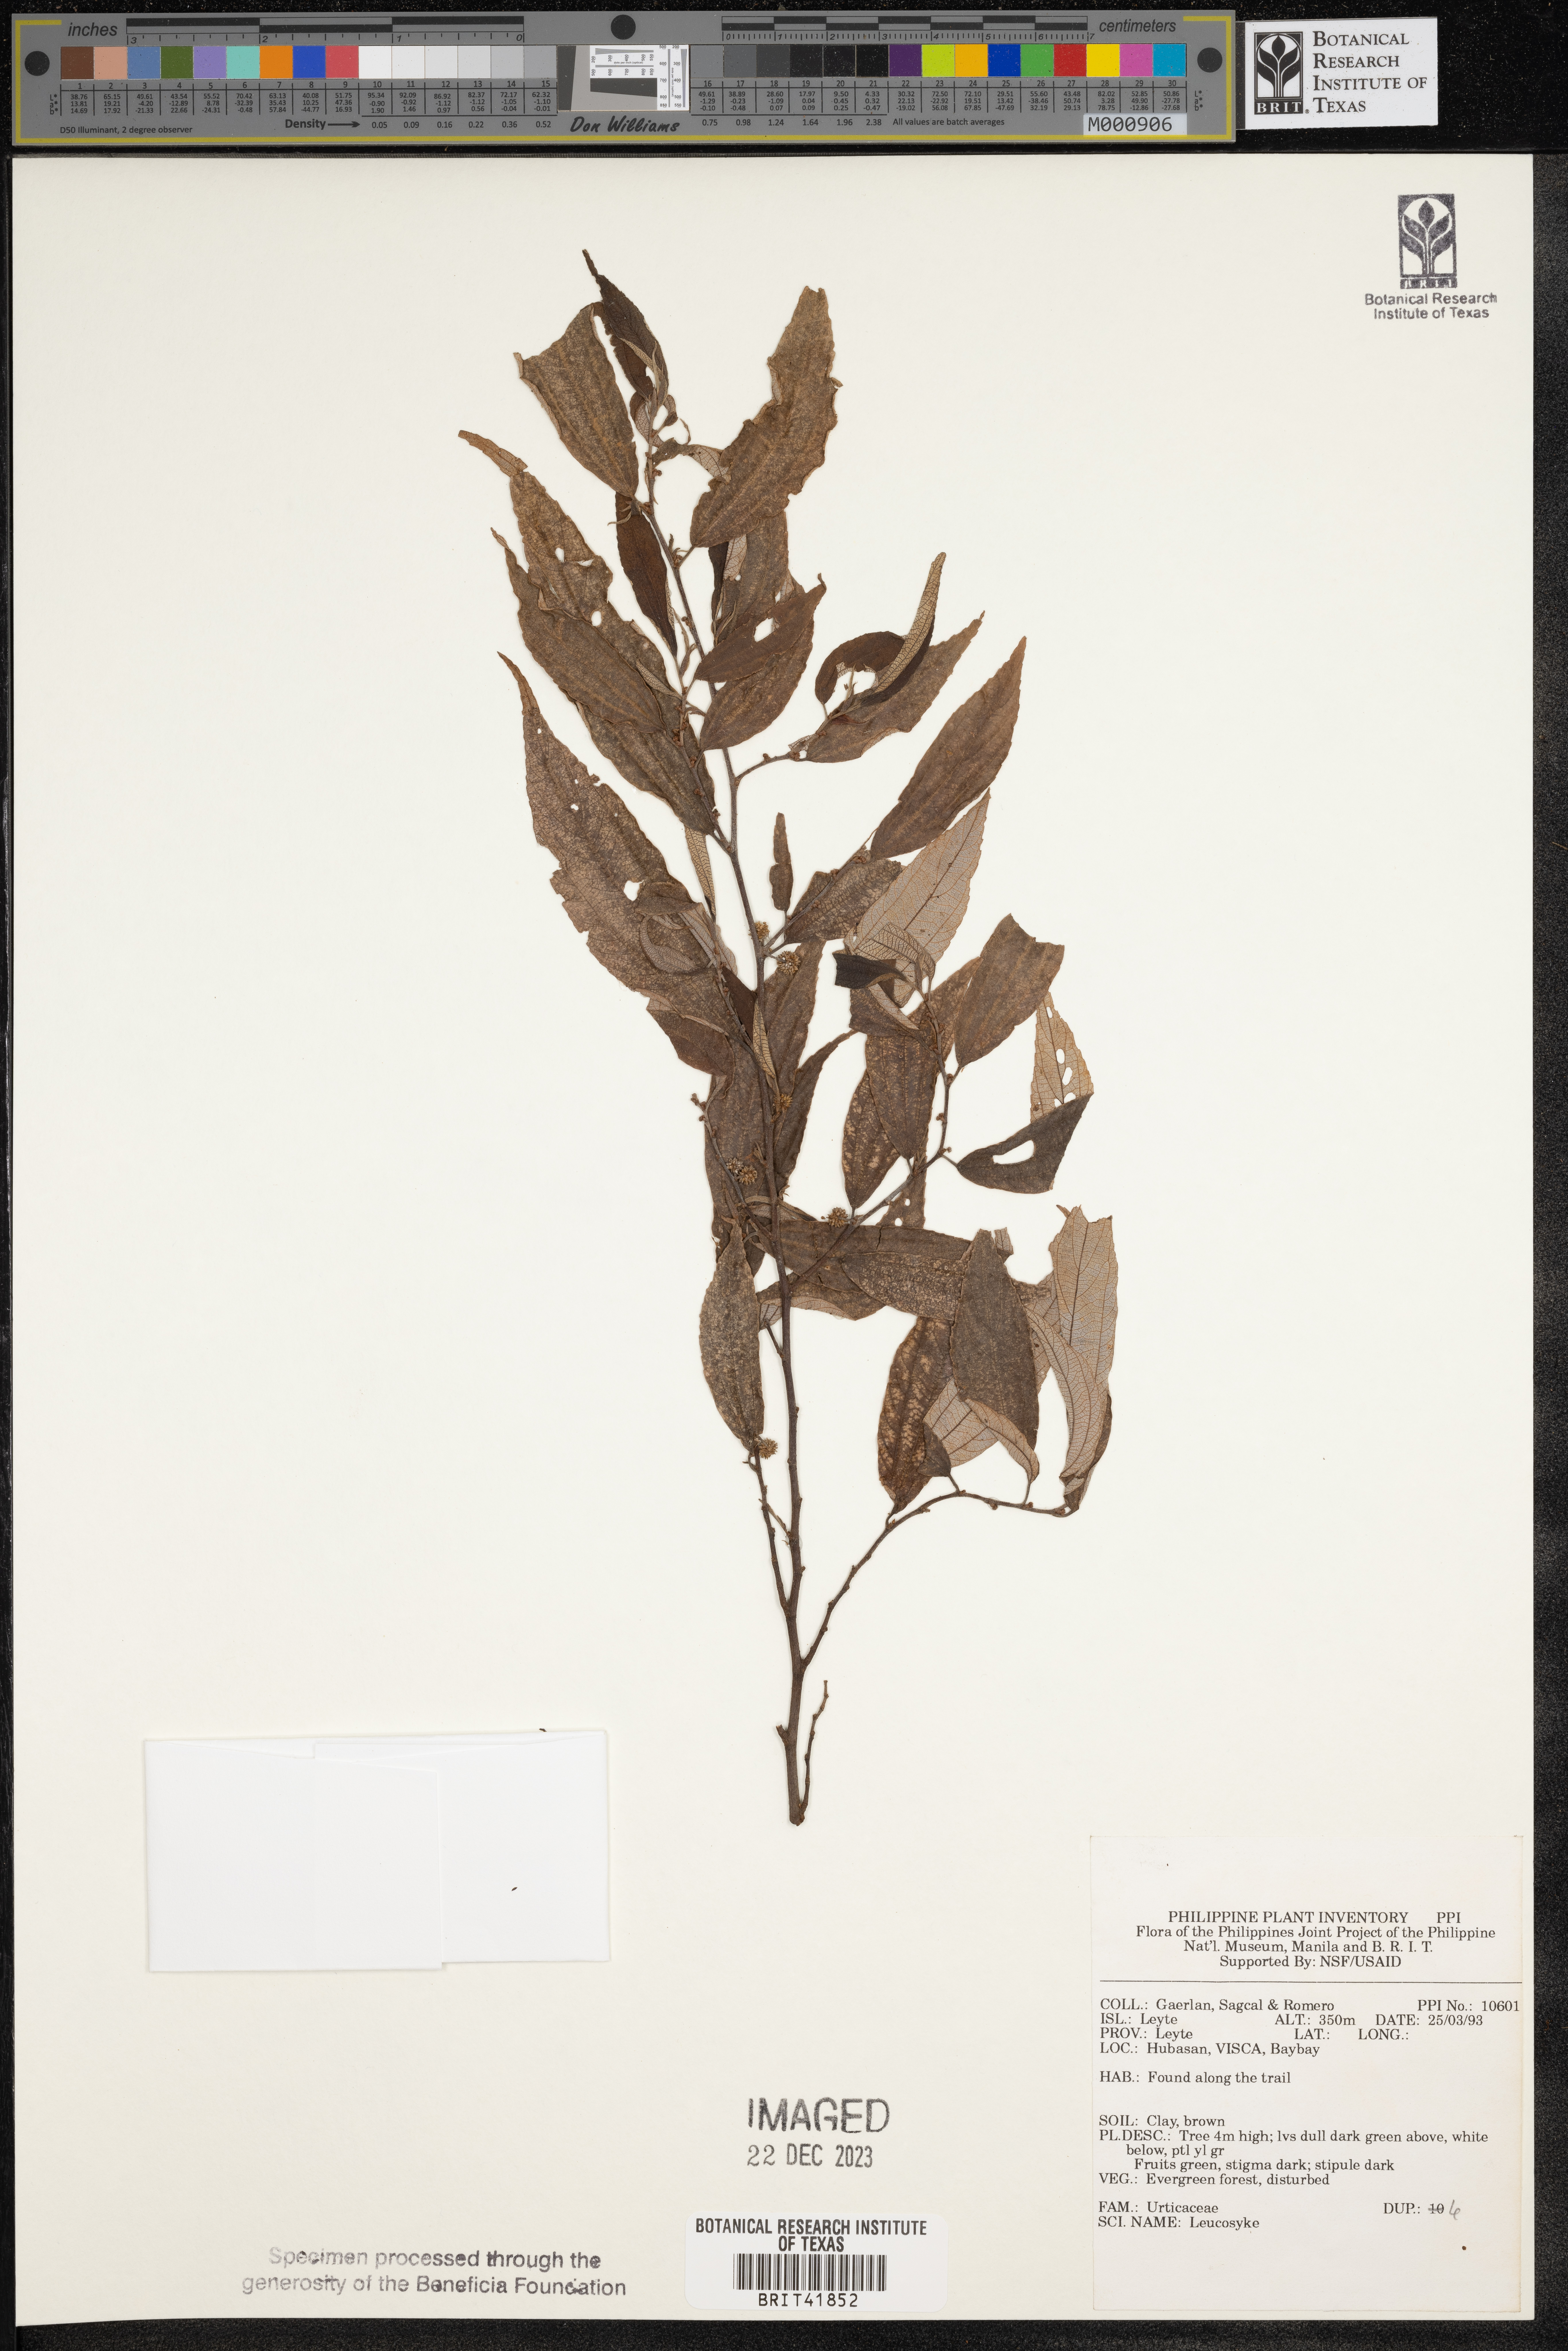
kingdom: Plantae
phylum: Tracheophyta
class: Magnoliopsida
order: Rosales
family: Urticaceae
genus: Leucosyke
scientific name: Leucosyke
